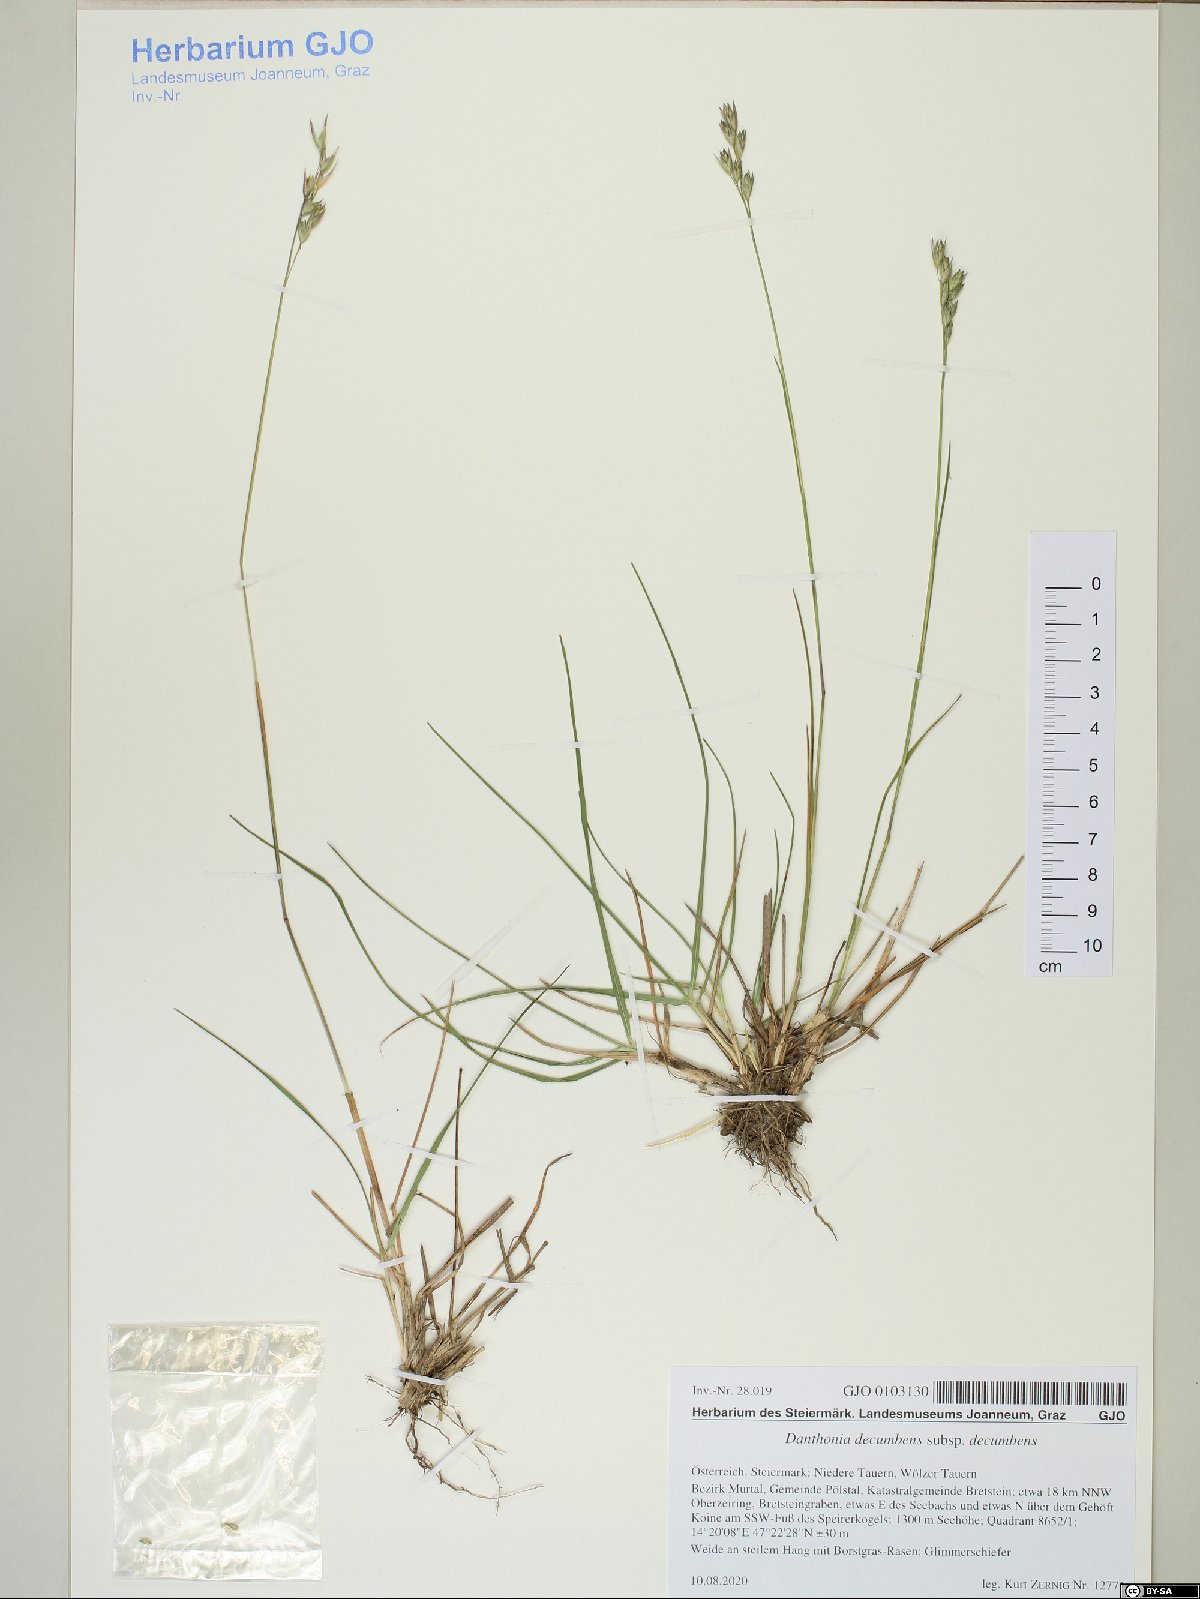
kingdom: Plantae
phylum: Tracheophyta
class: Liliopsida
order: Poales
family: Poaceae
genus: Danthonia
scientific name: Danthonia decumbens
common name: Common heathgrass
